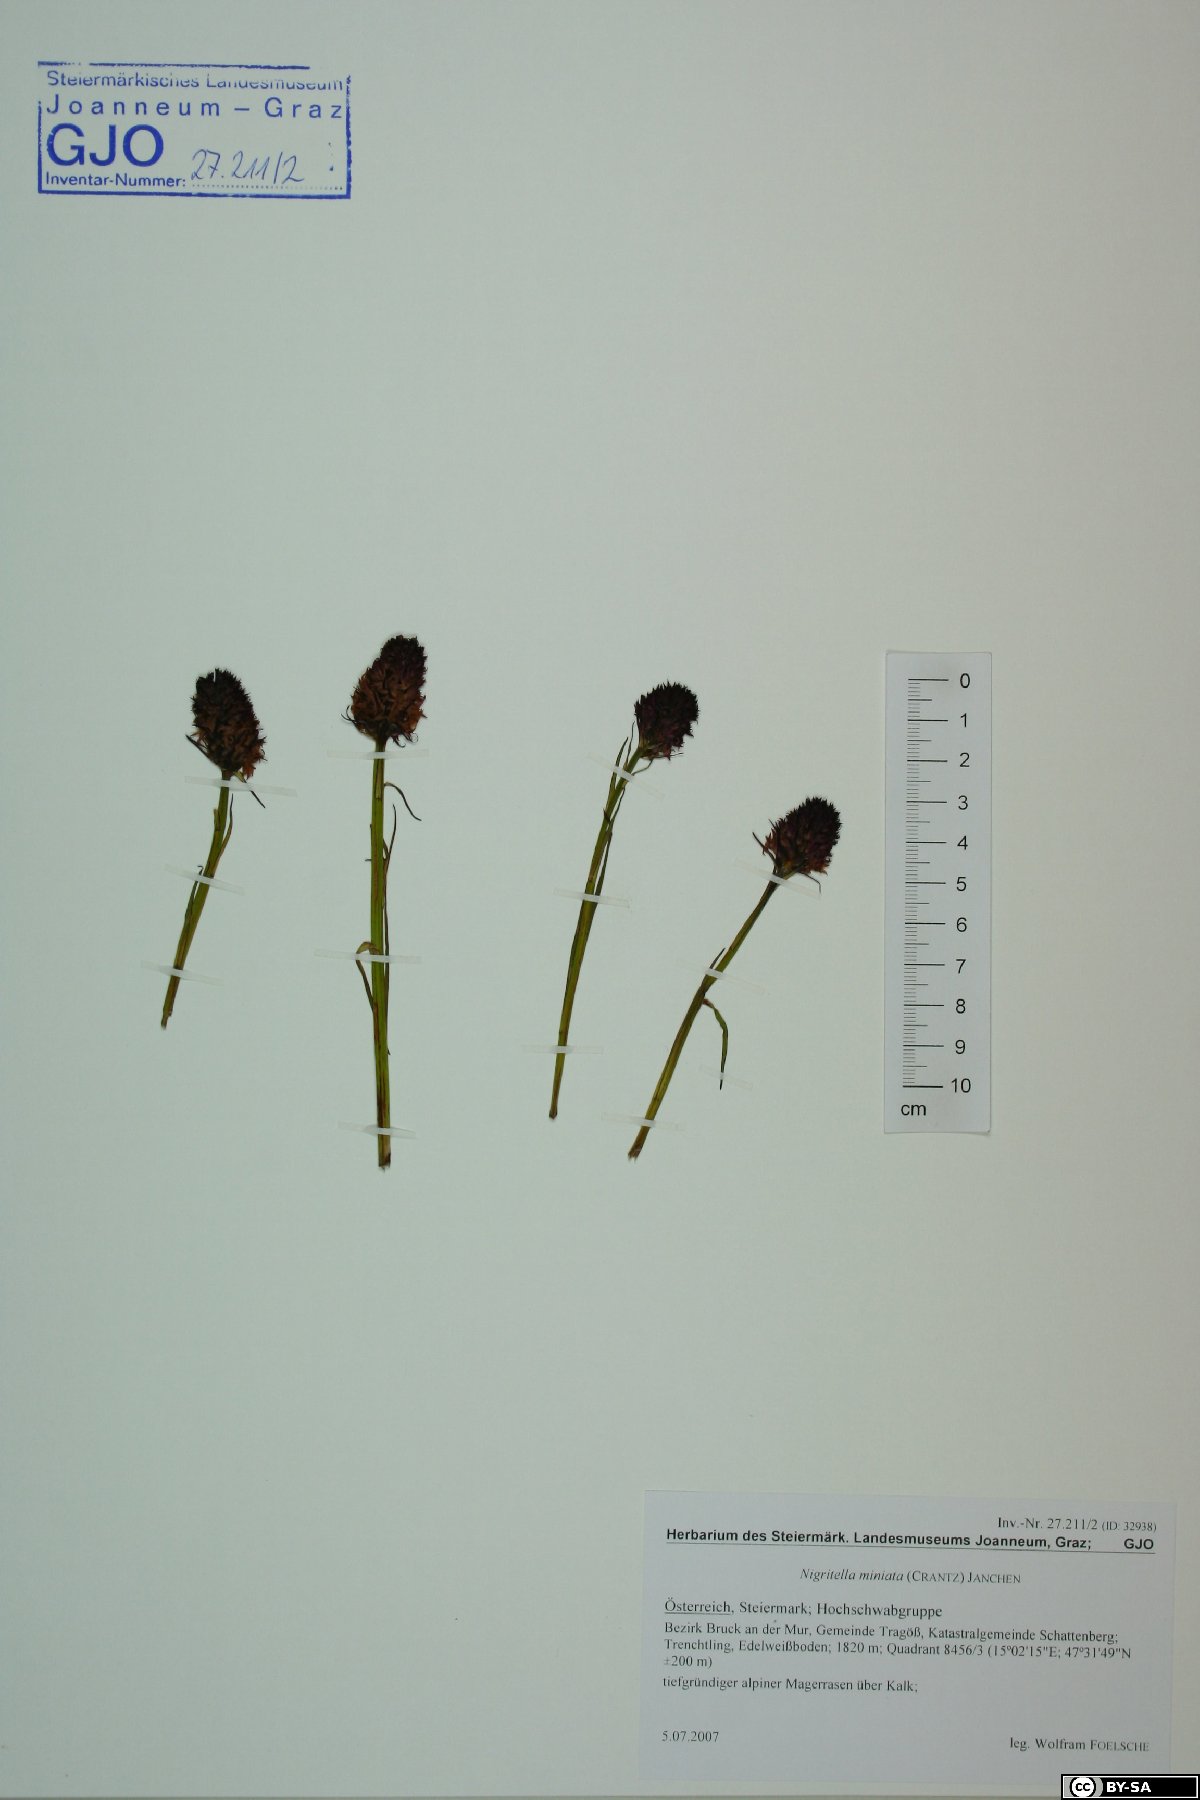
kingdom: Plantae
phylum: Tracheophyta
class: Liliopsida
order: Asparagales
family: Orchidaceae
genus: Gymnadenia
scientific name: Gymnadenia miniata
